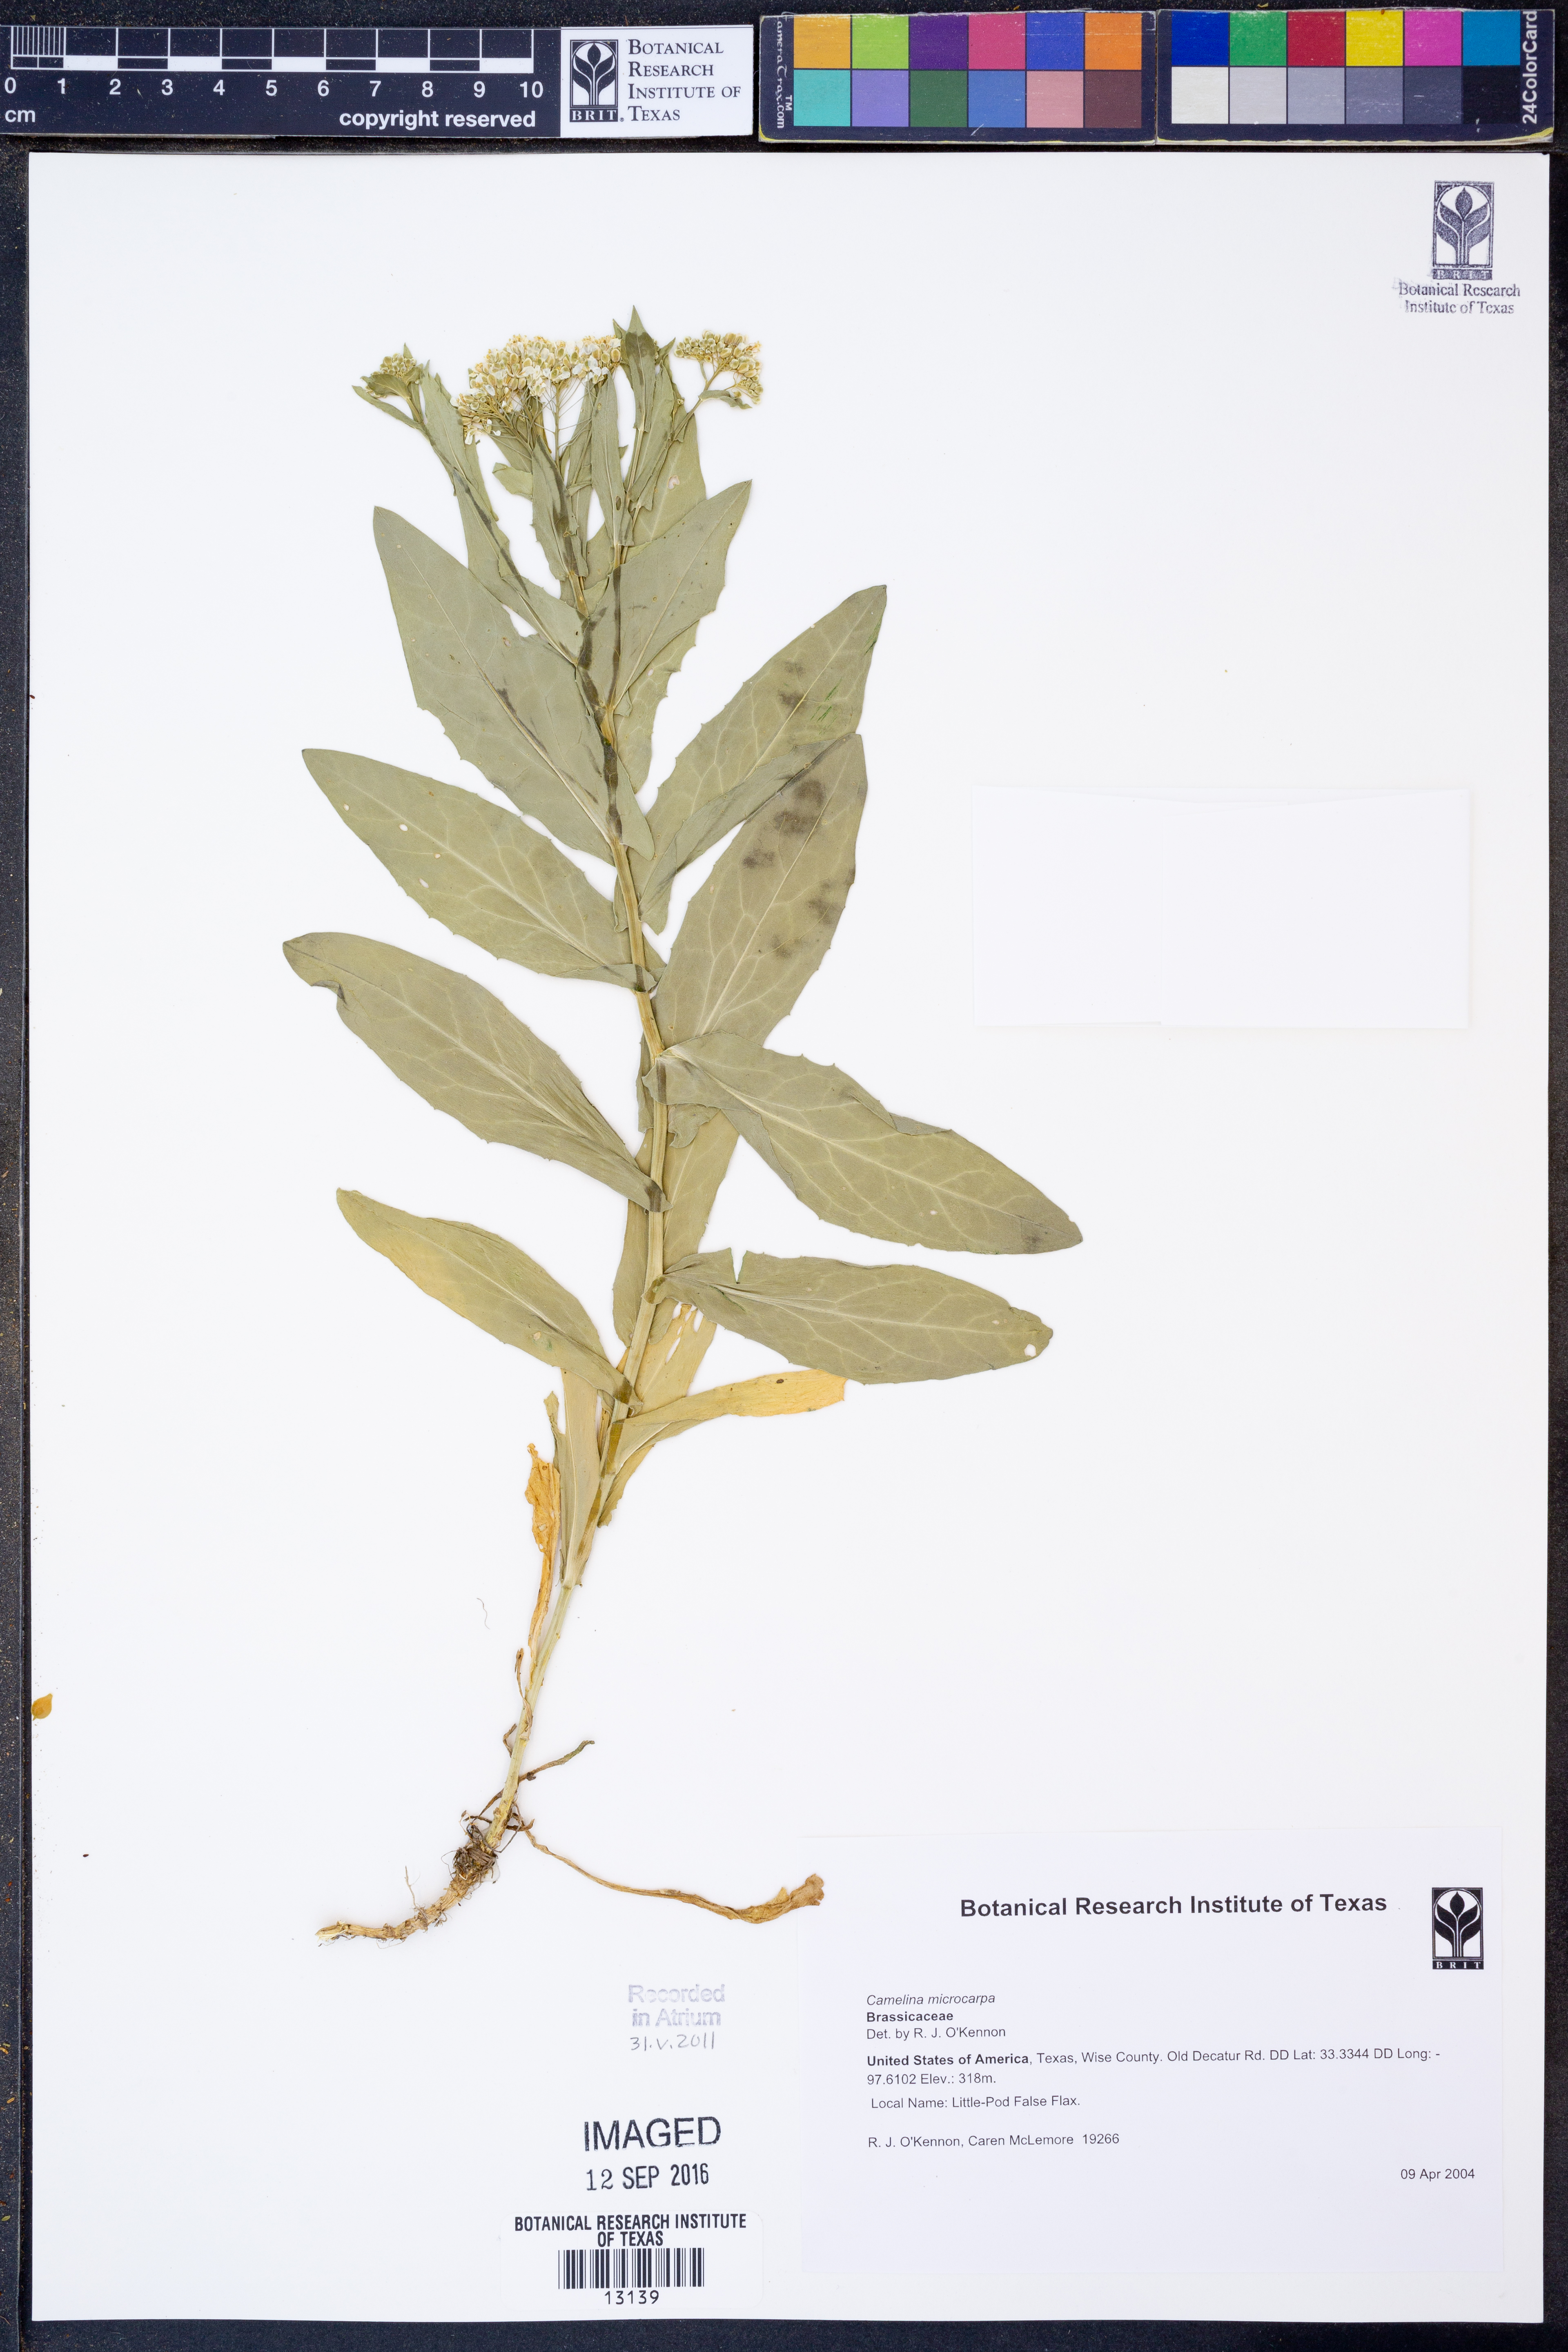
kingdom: Plantae
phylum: Tracheophyta
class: Magnoliopsida
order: Brassicales
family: Brassicaceae
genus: Camelina
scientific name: Camelina microcarpa
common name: Lesser gold-of-pleasure
